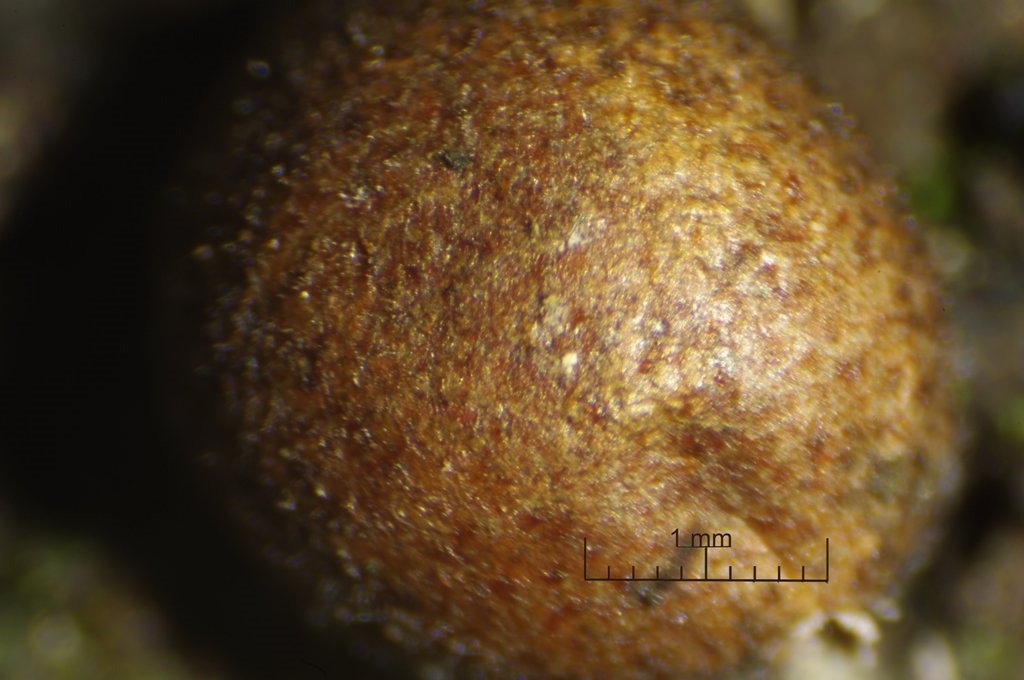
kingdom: Protozoa
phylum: Mycetozoa
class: Myxomycetes
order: Cribrariales
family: Tubiferaceae
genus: Lycogala
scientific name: Lycogala exiguum
